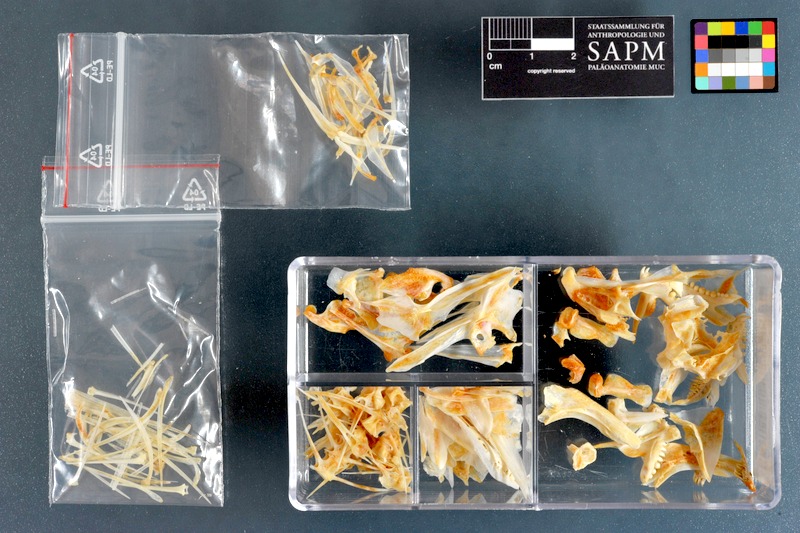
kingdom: Animalia
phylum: Chordata
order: Perciformes
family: Lethrinidae
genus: Lethrinus
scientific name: Lethrinus miniatus
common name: Trumpet emperor
